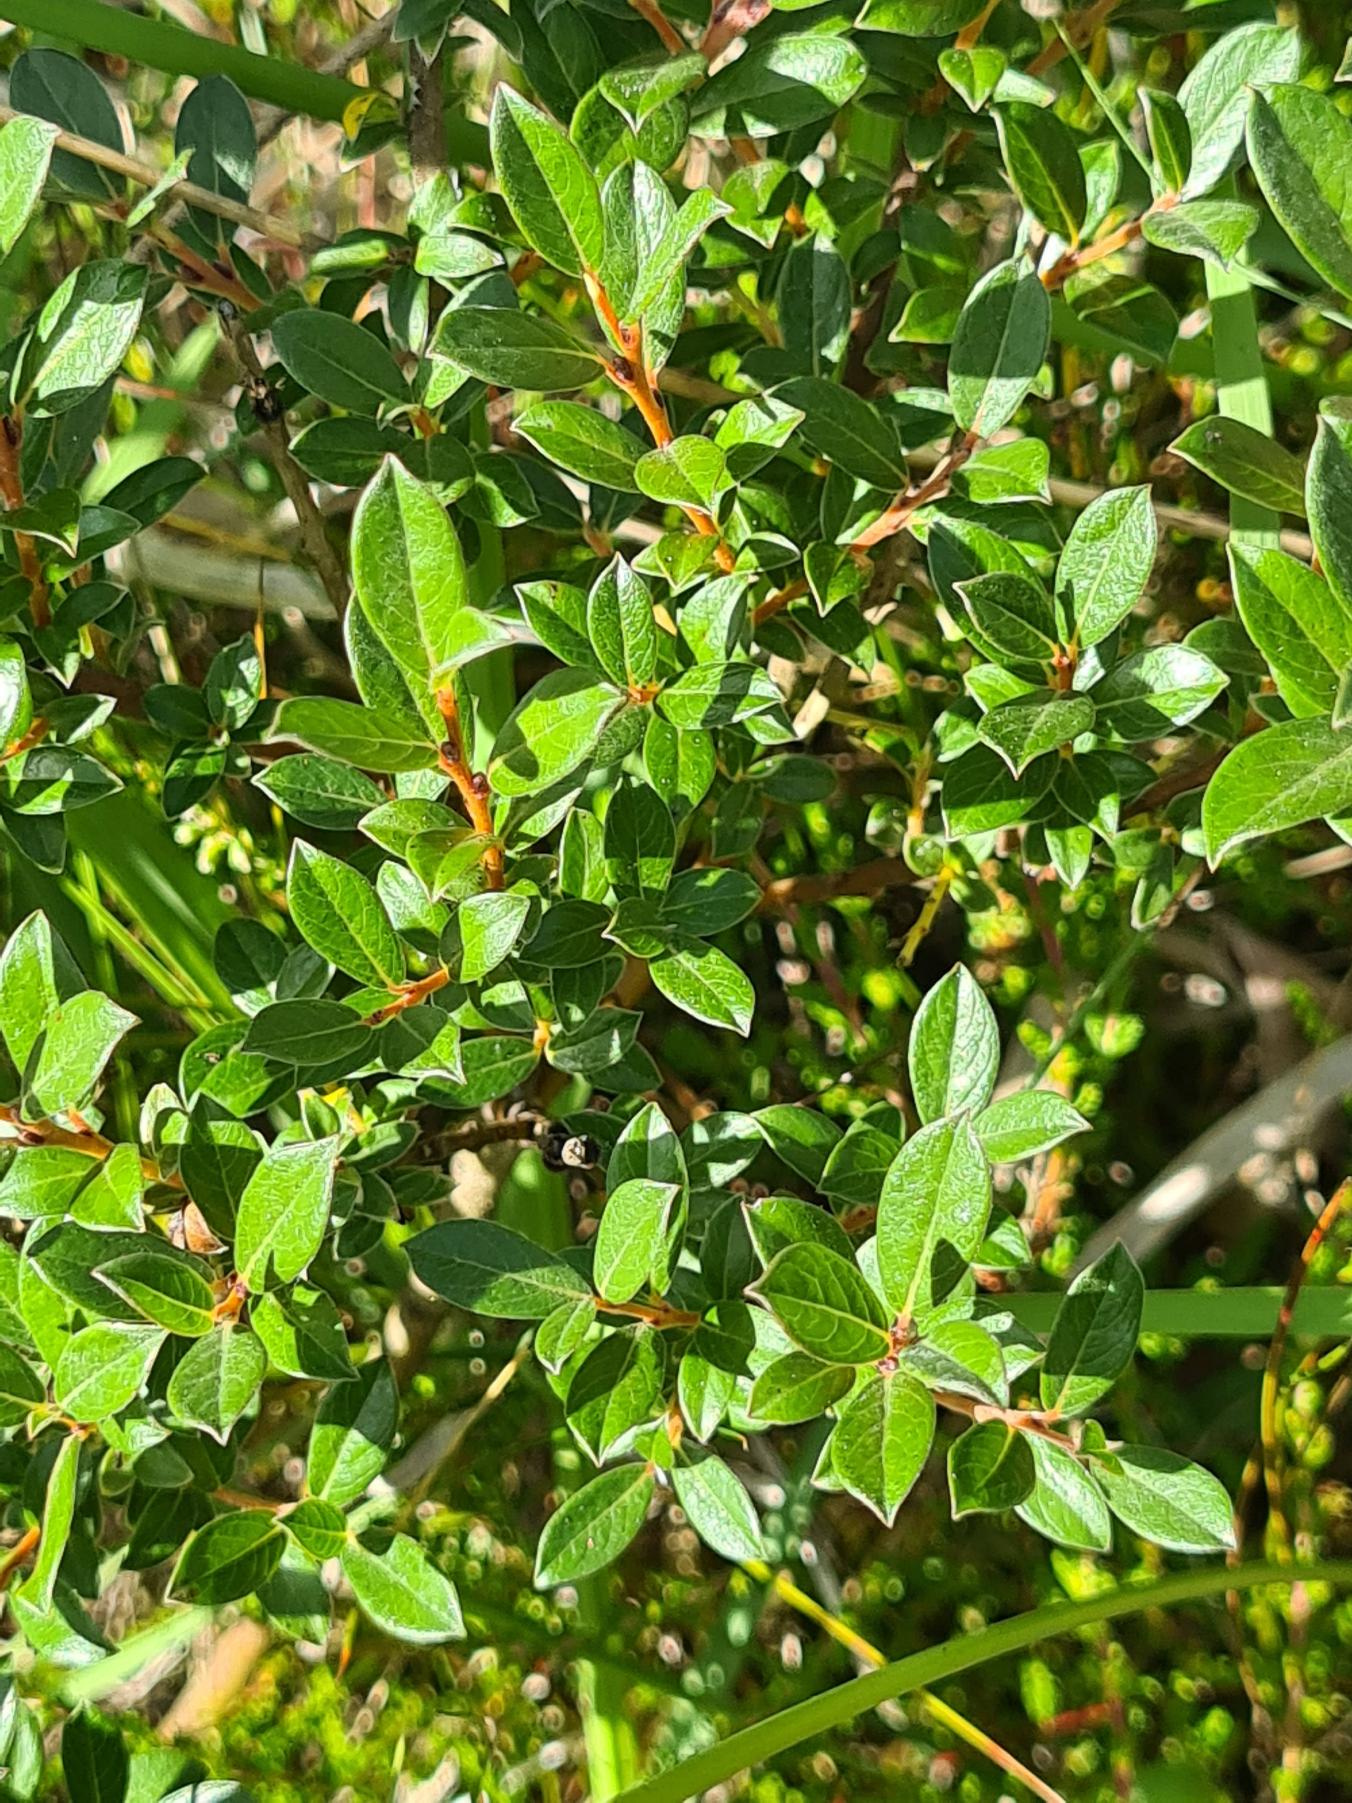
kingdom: Plantae
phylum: Tracheophyta
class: Magnoliopsida
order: Malpighiales
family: Salicaceae
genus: Salix
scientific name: Salix repens
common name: Krybende pil
